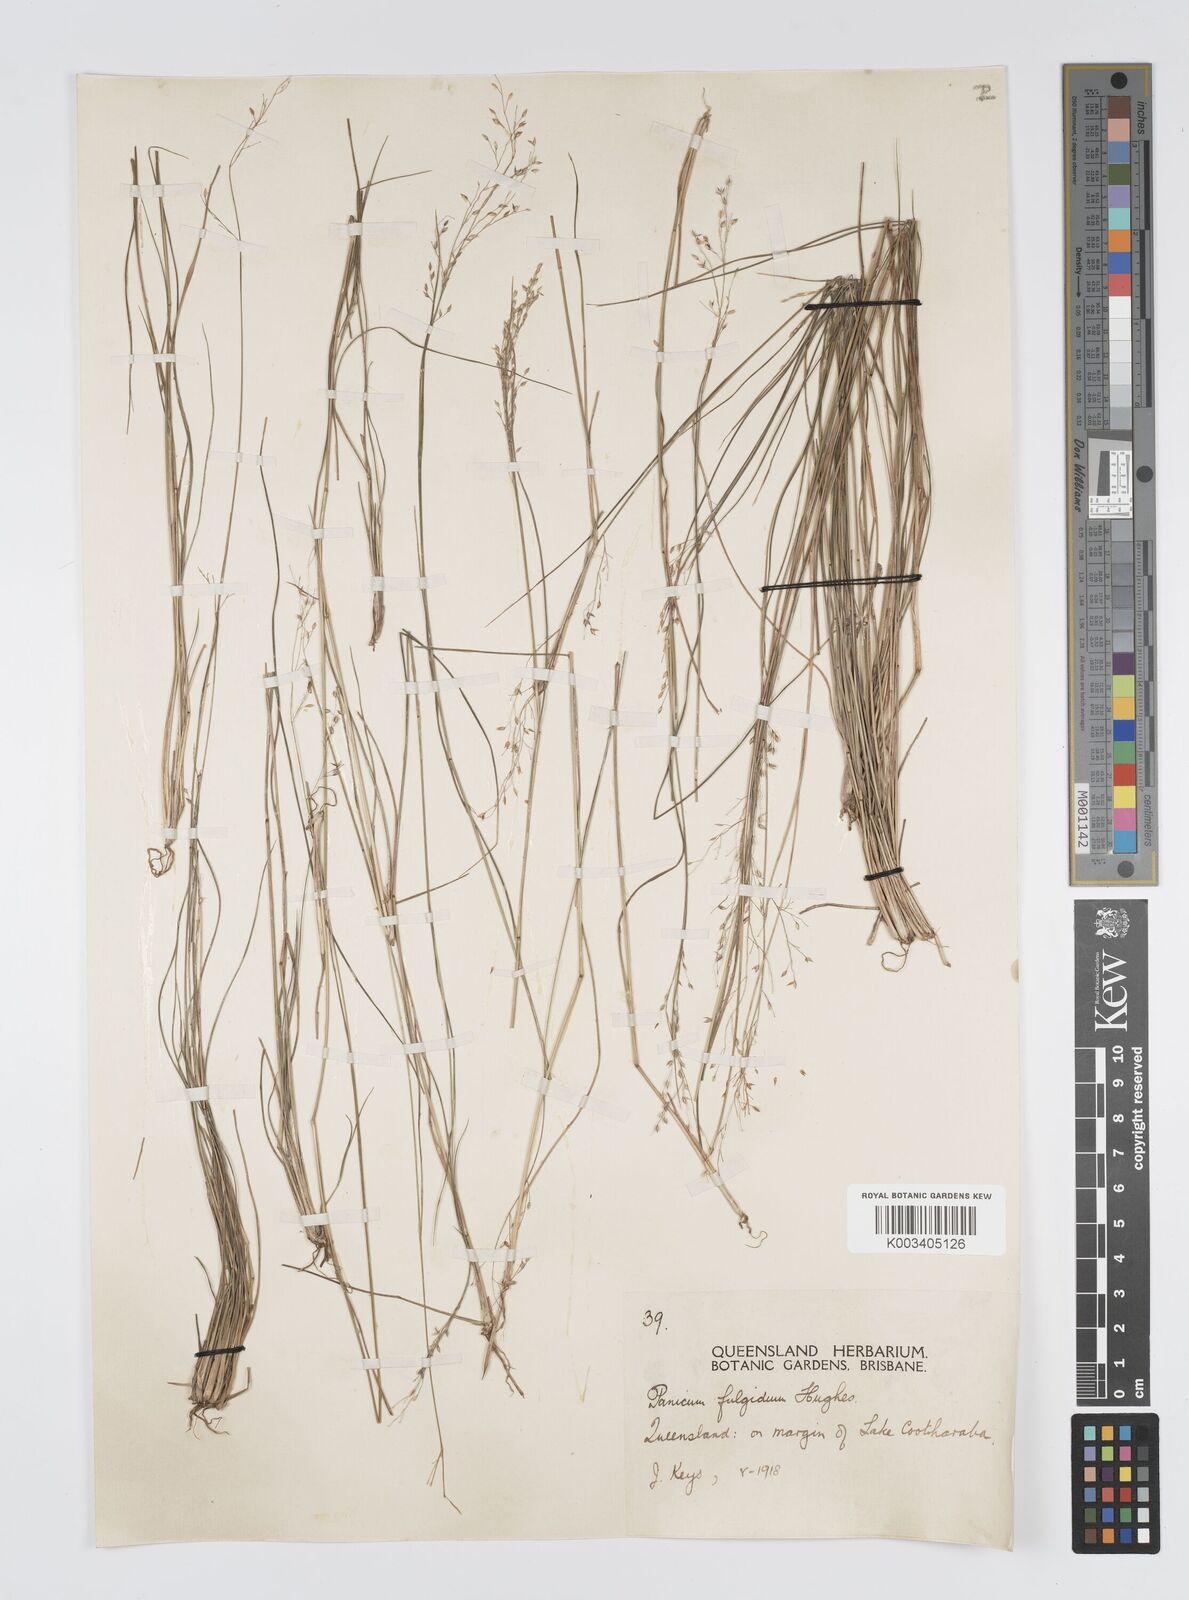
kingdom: Plantae
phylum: Tracheophyta
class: Liliopsida
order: Poales
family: Poaceae
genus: Panicum
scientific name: Panicum simile
